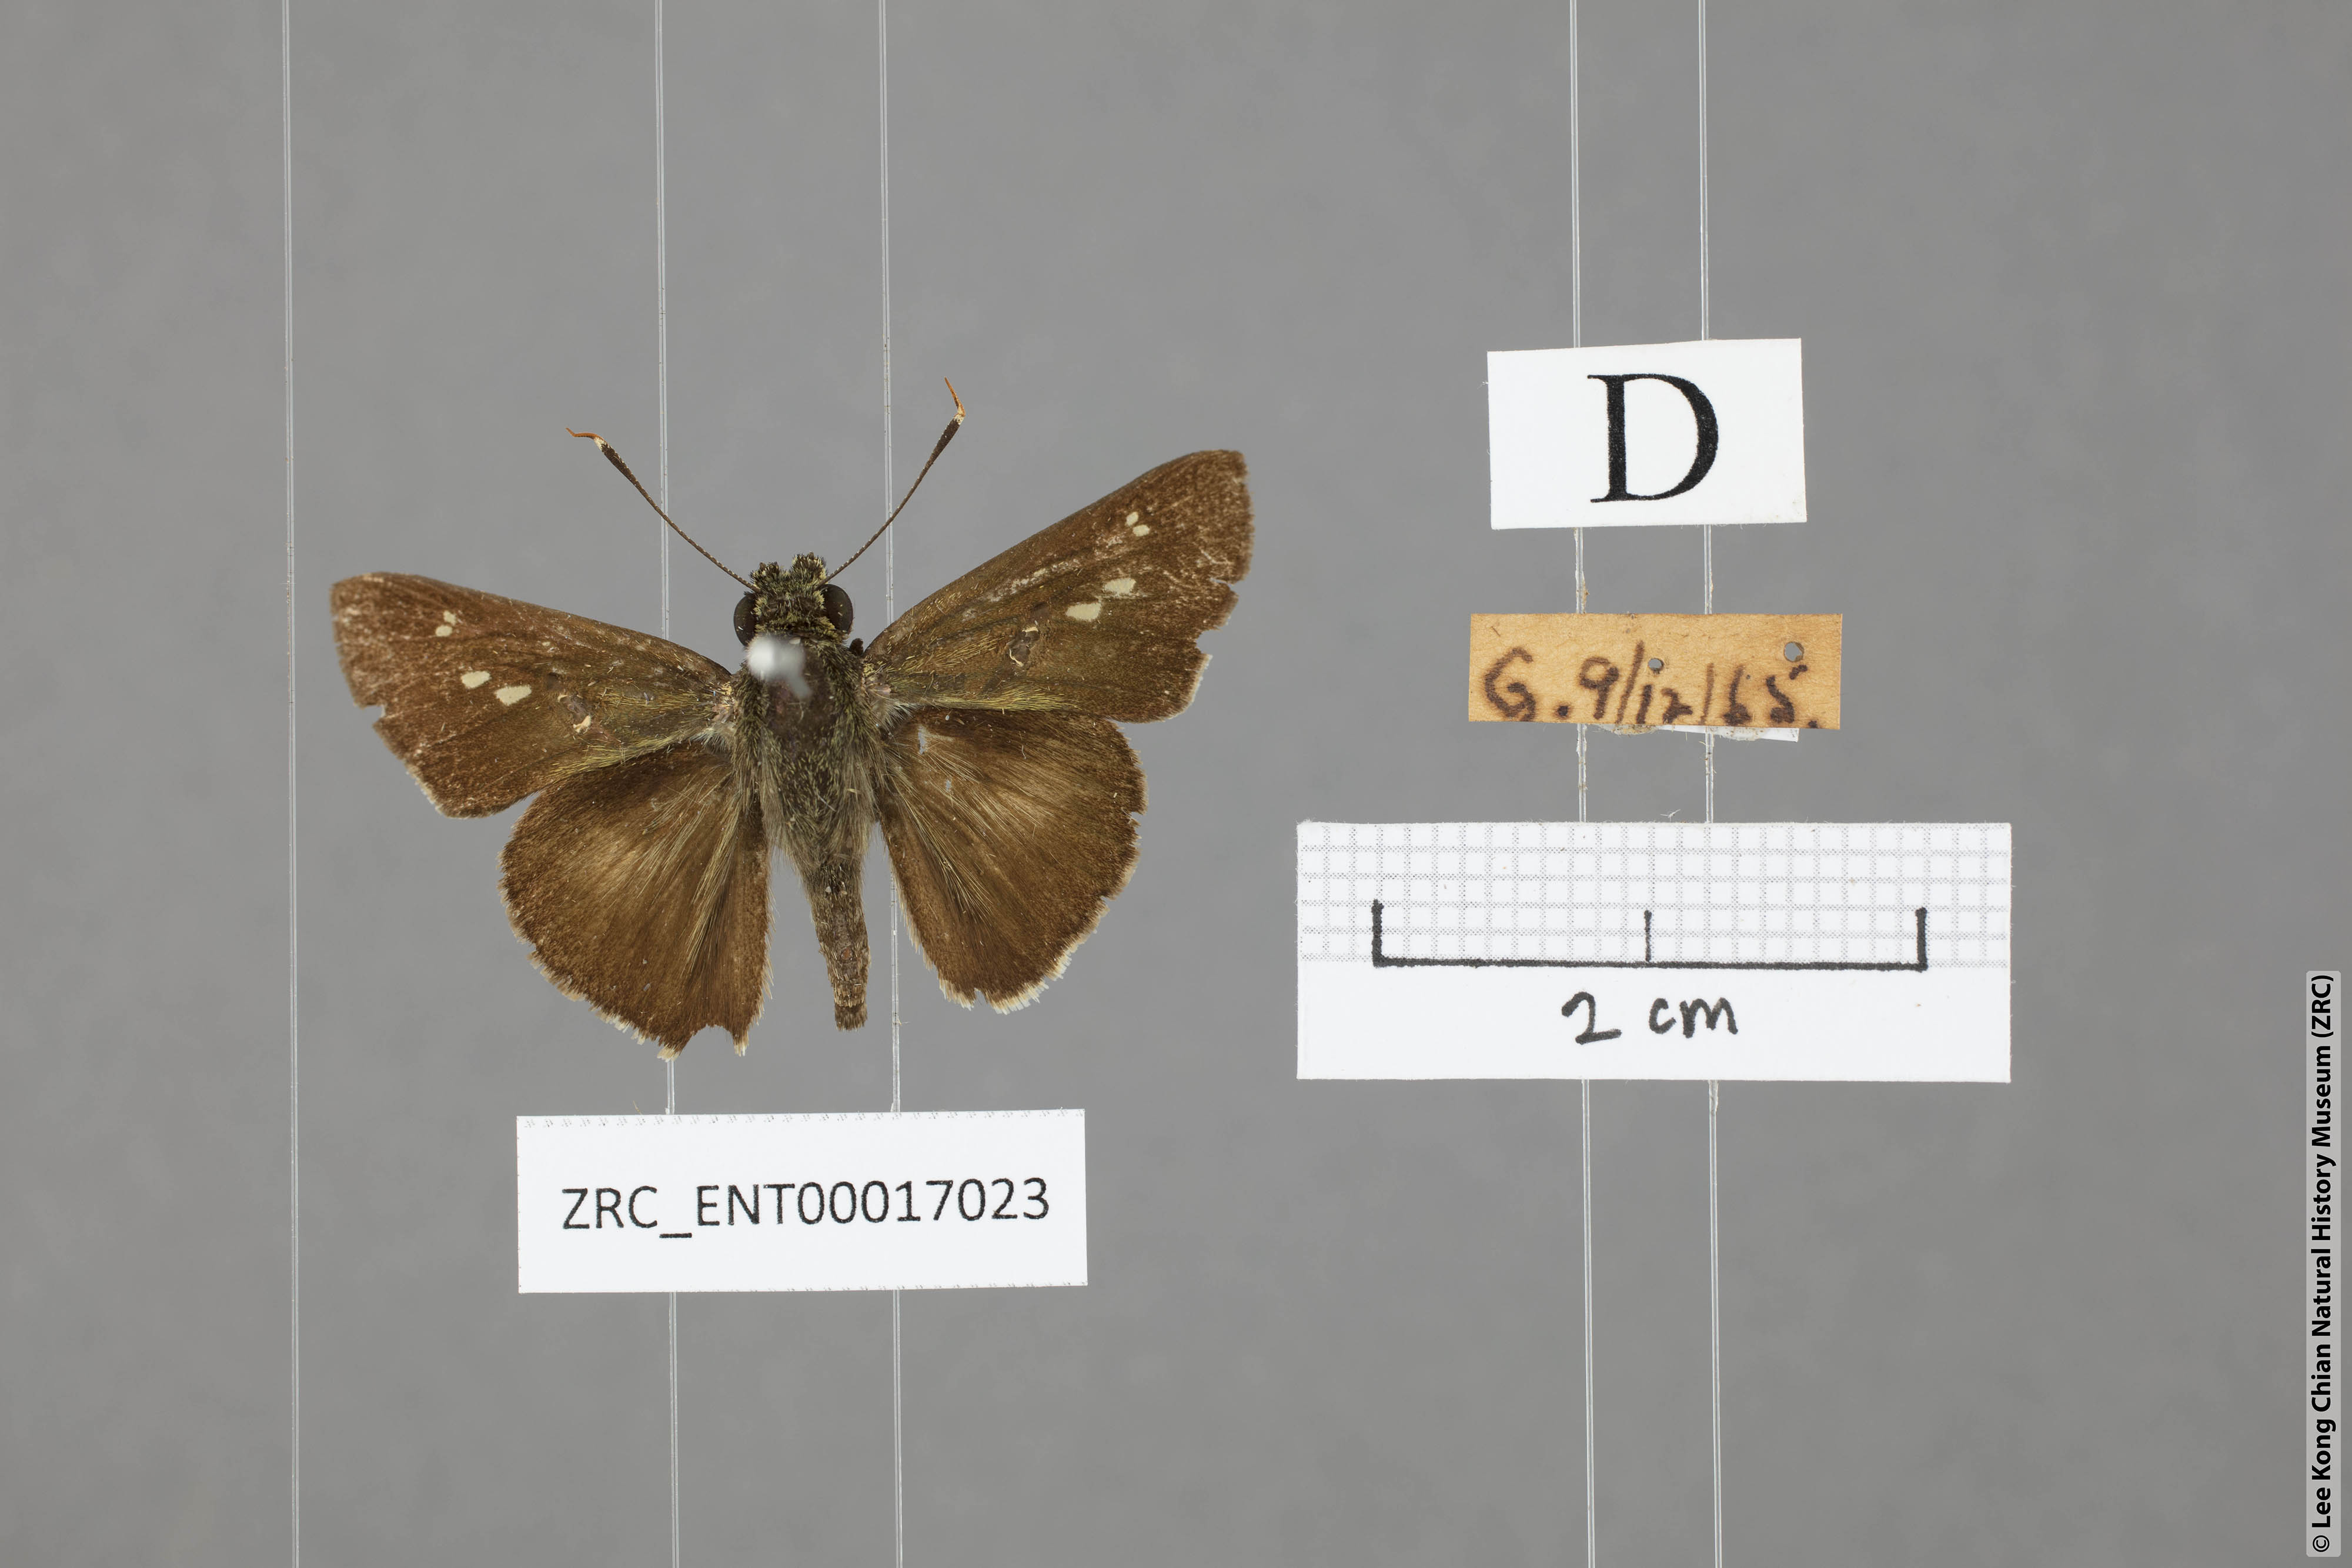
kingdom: Animalia
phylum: Arthropoda
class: Insecta
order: Lepidoptera
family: Hesperiidae
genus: Halpe
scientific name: Halpe
